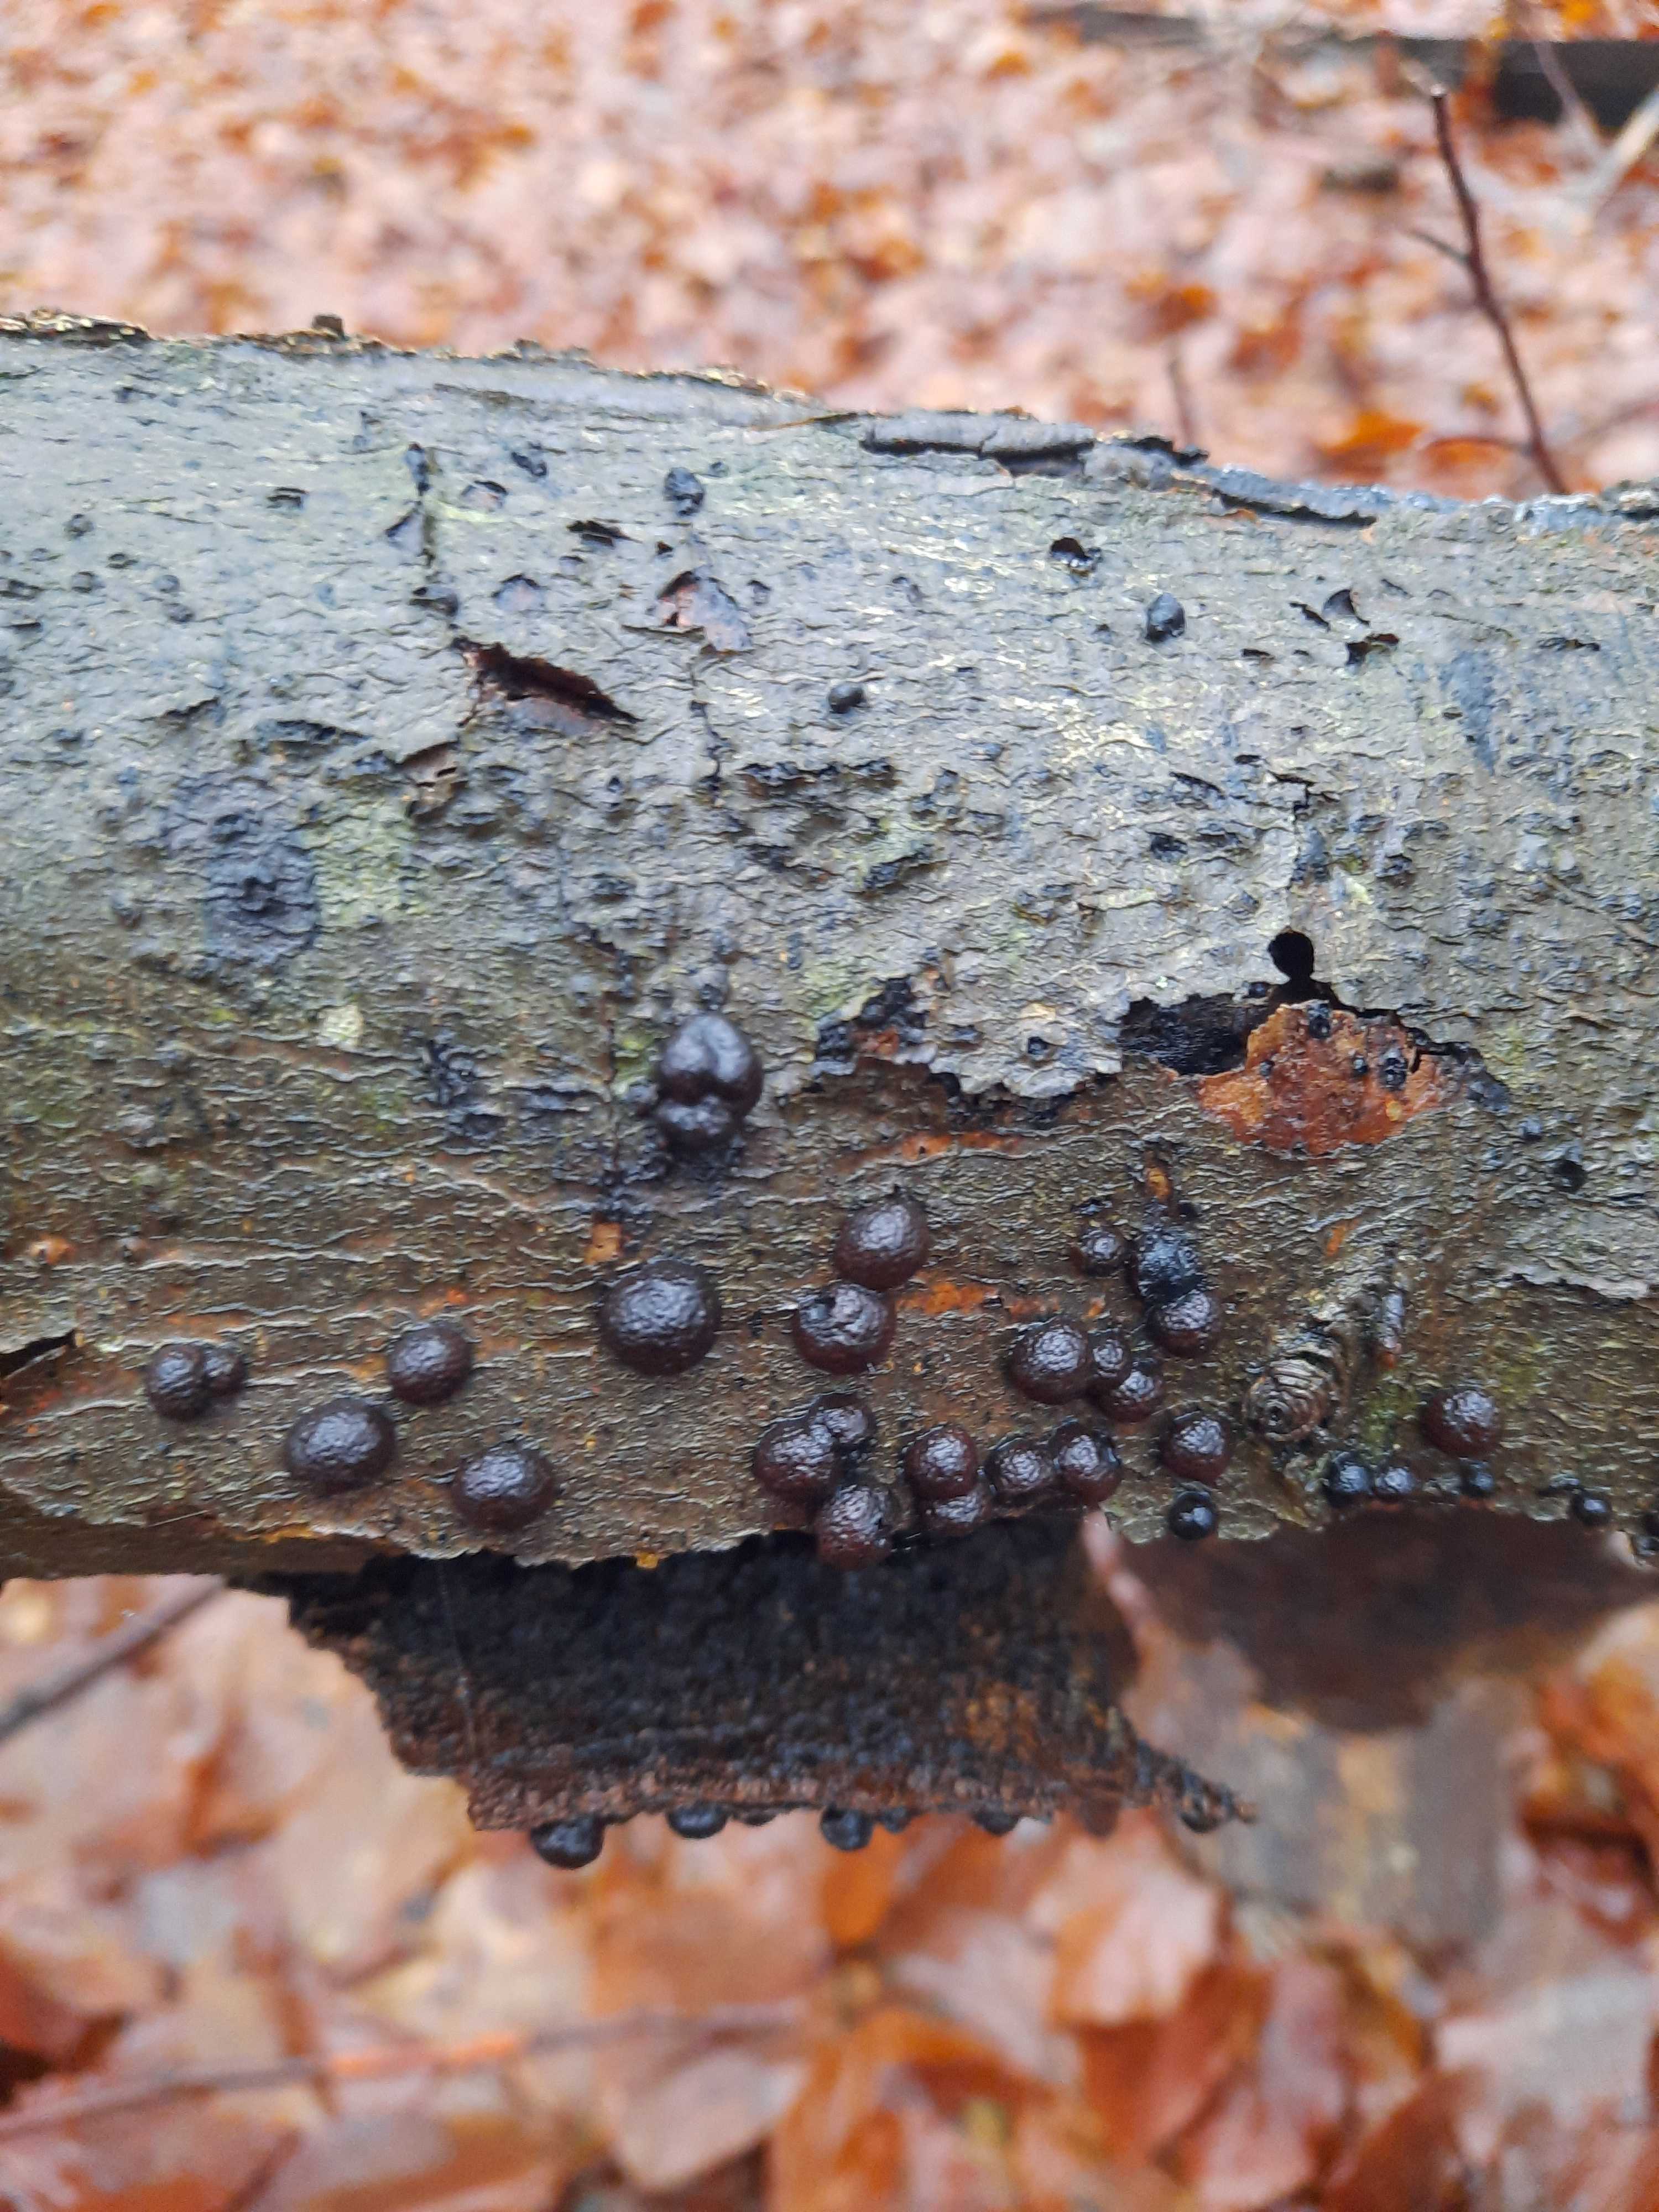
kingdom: Fungi
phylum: Ascomycota
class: Sordariomycetes
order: Xylariales
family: Hypoxylaceae
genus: Hypoxylon
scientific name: Hypoxylon fragiforme
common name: kuljordbær
